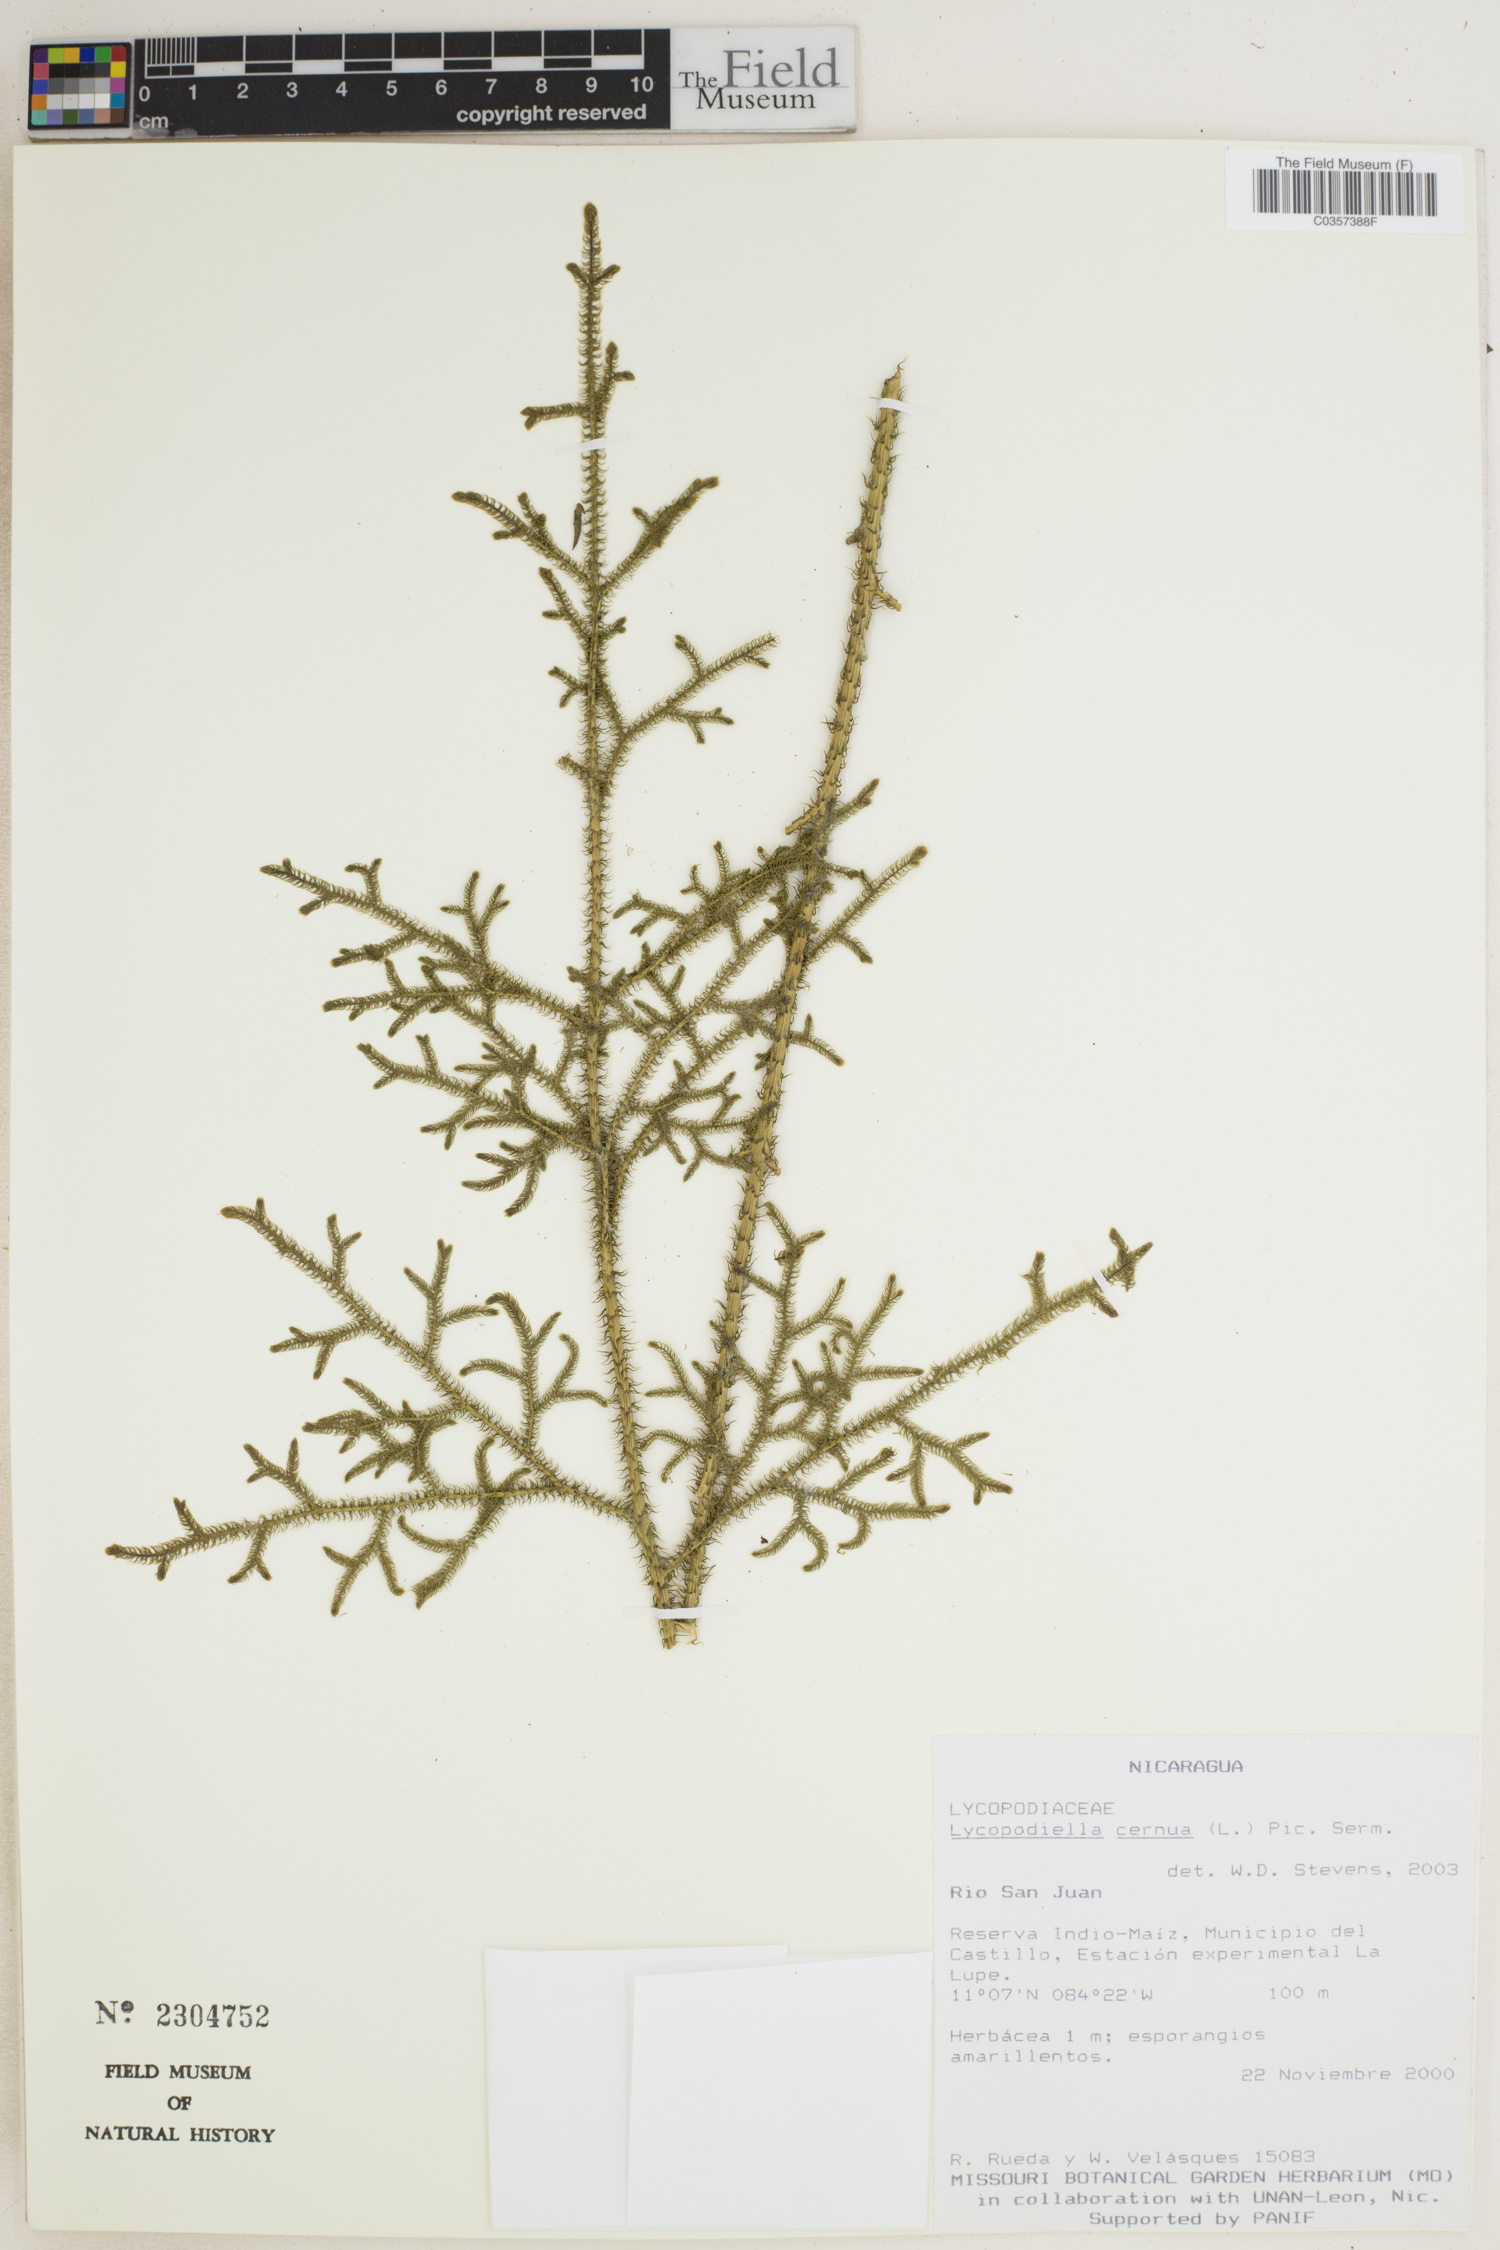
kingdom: Plantae
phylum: Tracheophyta
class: Lycopodiopsida
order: Lycopodiales
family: Lycopodiaceae
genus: Palhinhaea
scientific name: Palhinhaea cernua
